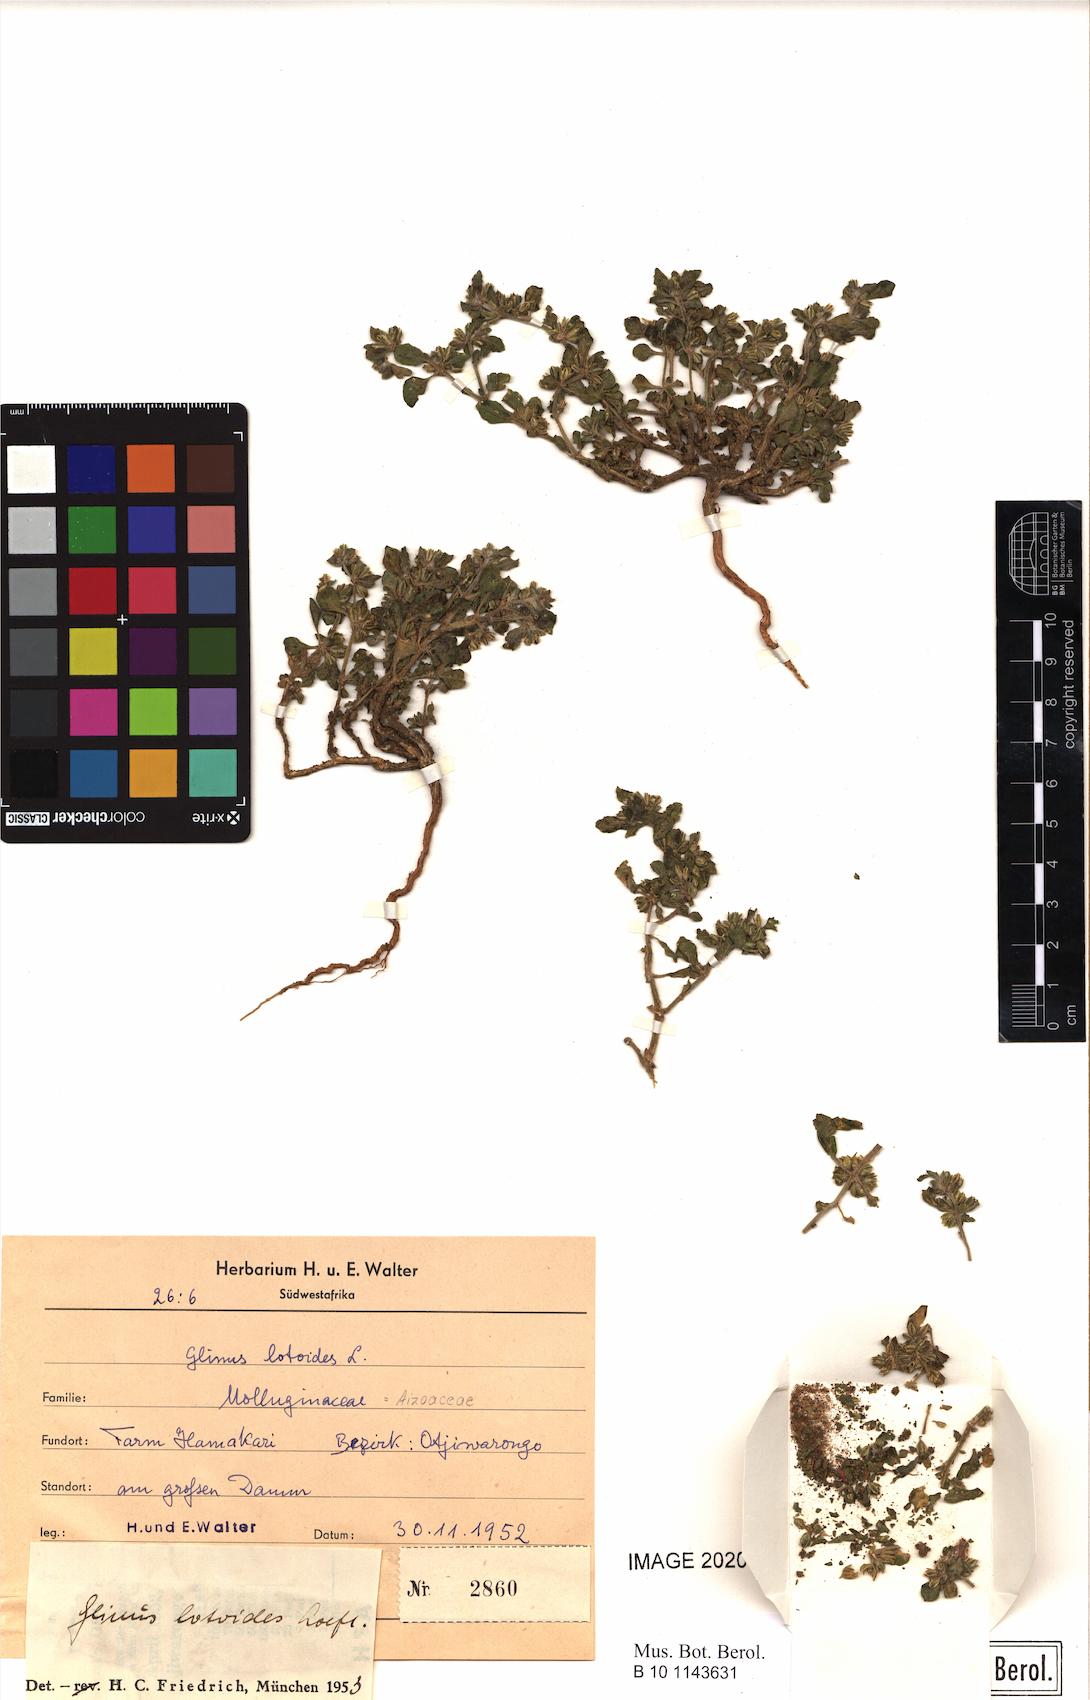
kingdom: Plantae
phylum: Tracheophyta
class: Magnoliopsida
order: Caryophyllales
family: Molluginaceae
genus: Glinus
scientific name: Glinus lotoides
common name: Lotus sweetjuice
